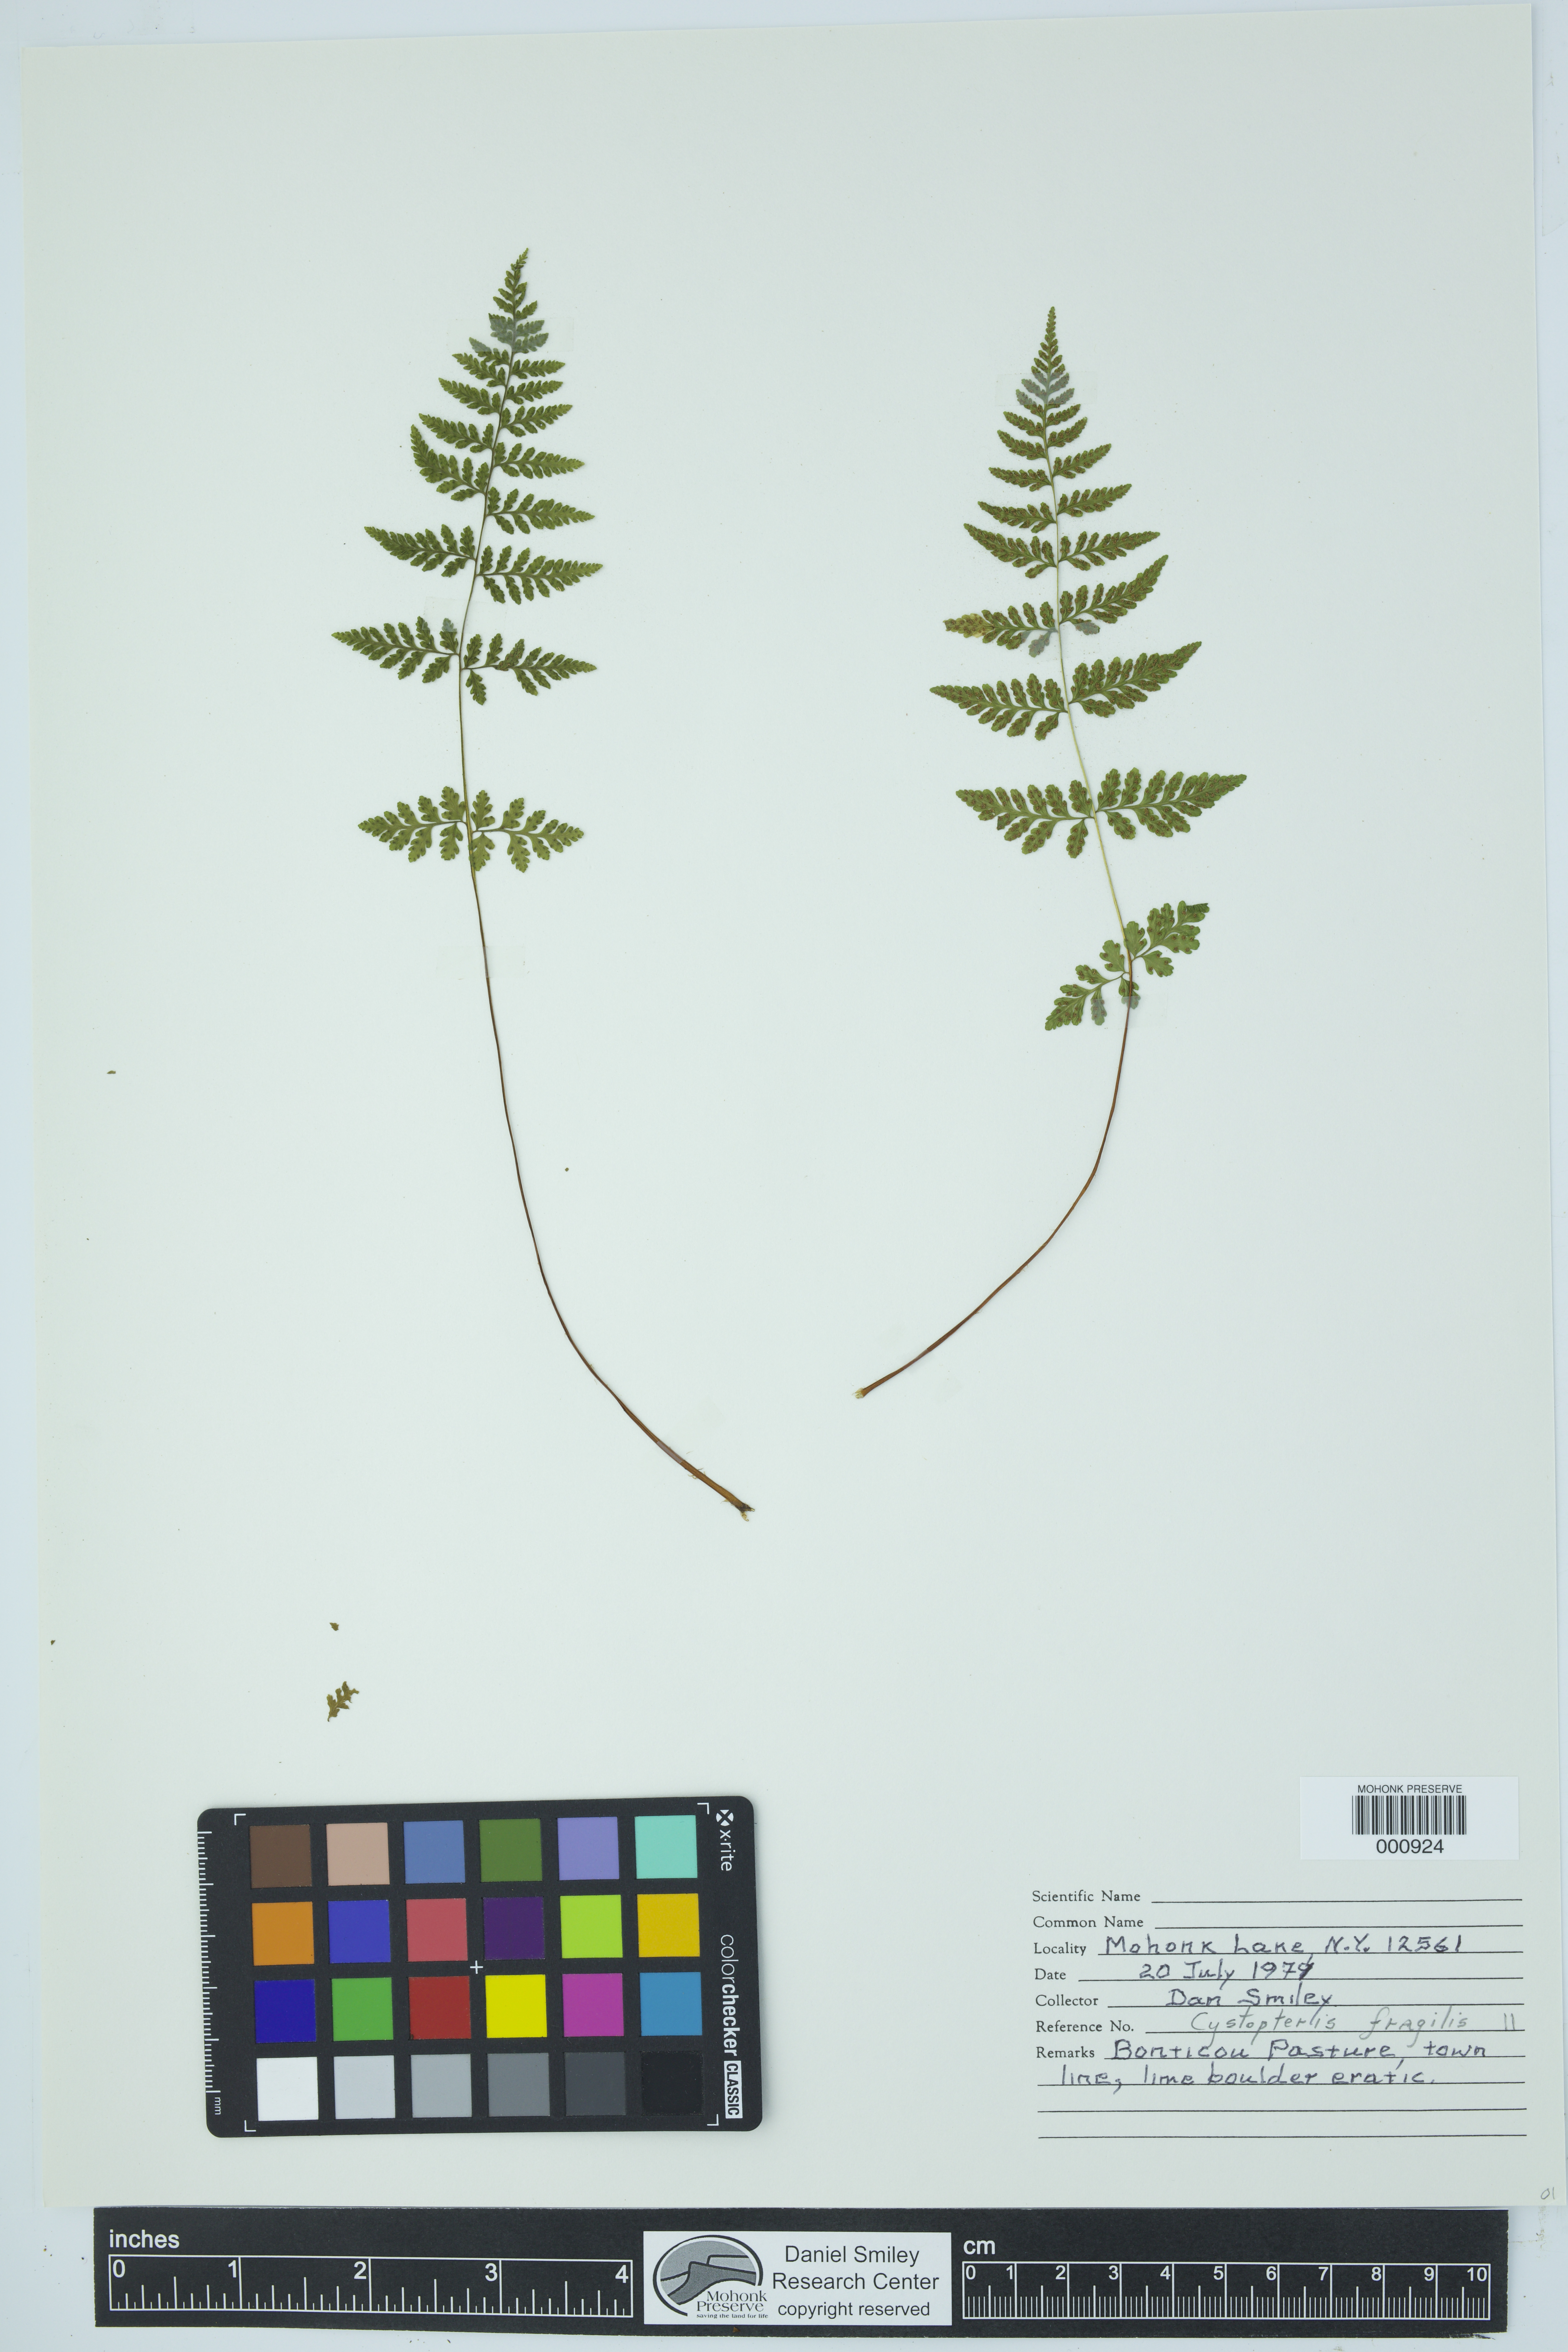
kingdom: Plantae
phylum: Tracheophyta
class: Polypodiopsida
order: Polypodiales
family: Cystopteridaceae
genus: Cystopteris
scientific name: Cystopteris fragilis
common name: Brittle bladder fern
